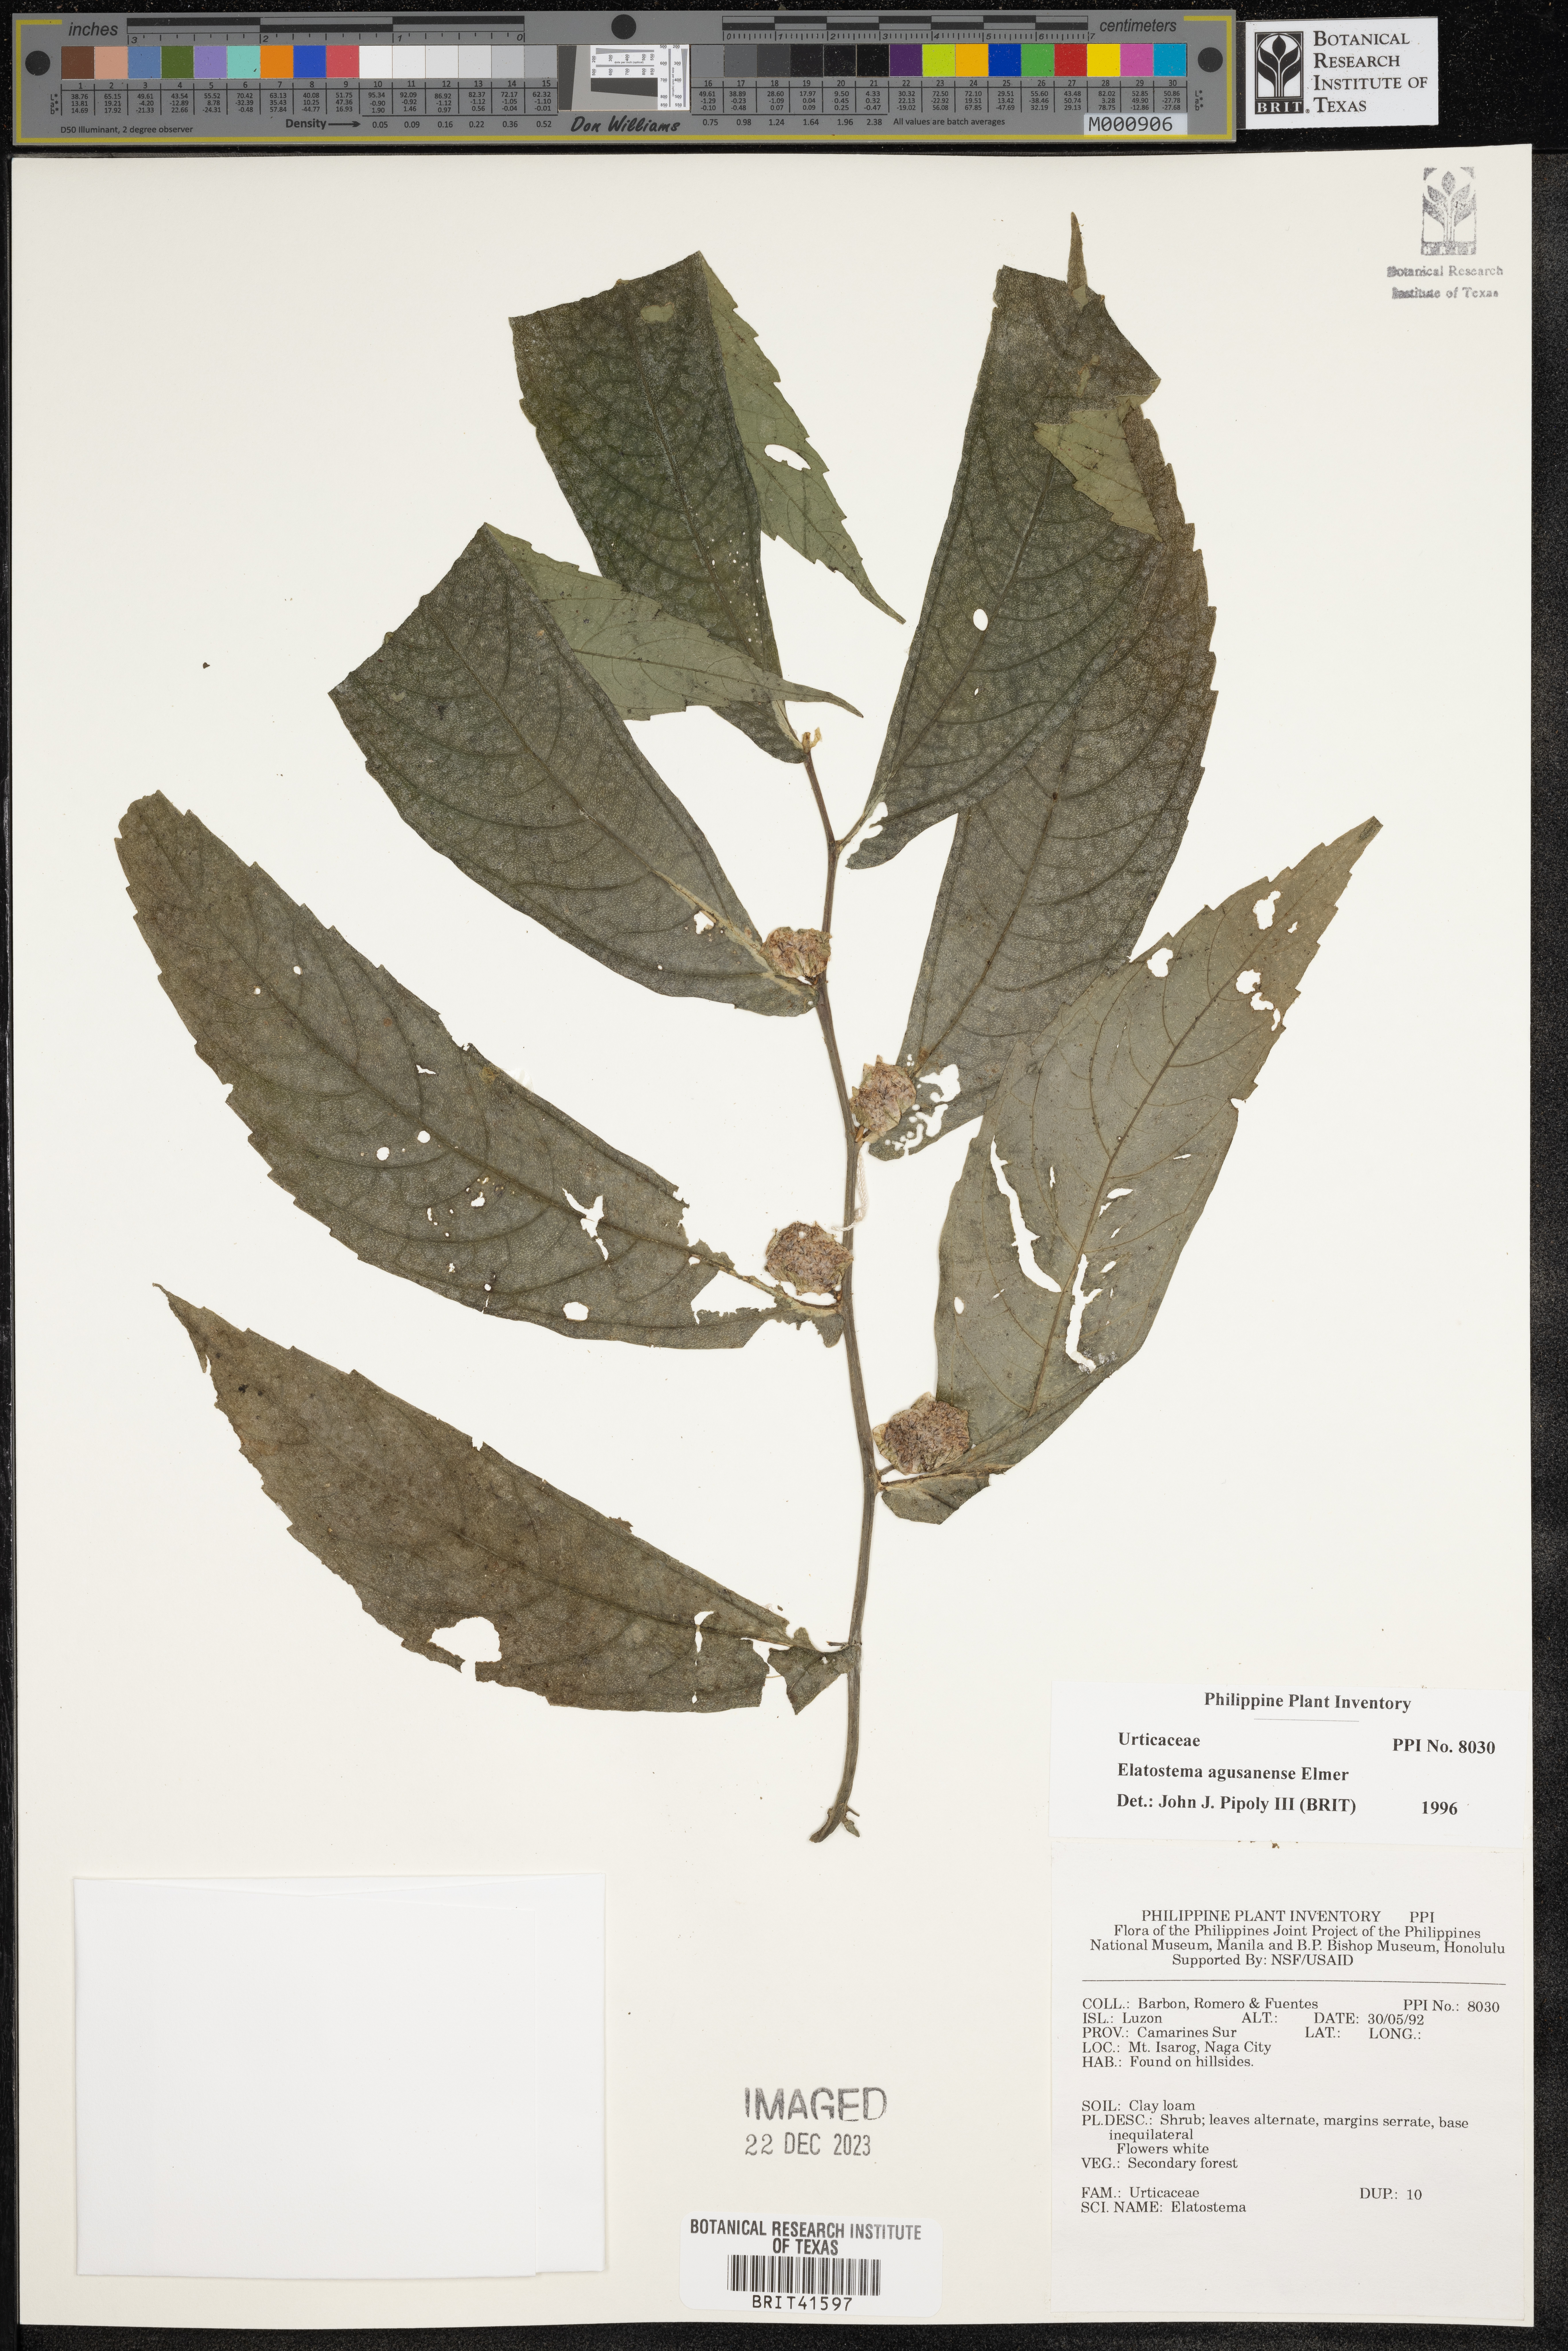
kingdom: Plantae
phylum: Tracheophyta
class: Magnoliopsida
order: Rosales
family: Urticaceae
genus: Elatostema
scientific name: Elatostema agusanense
